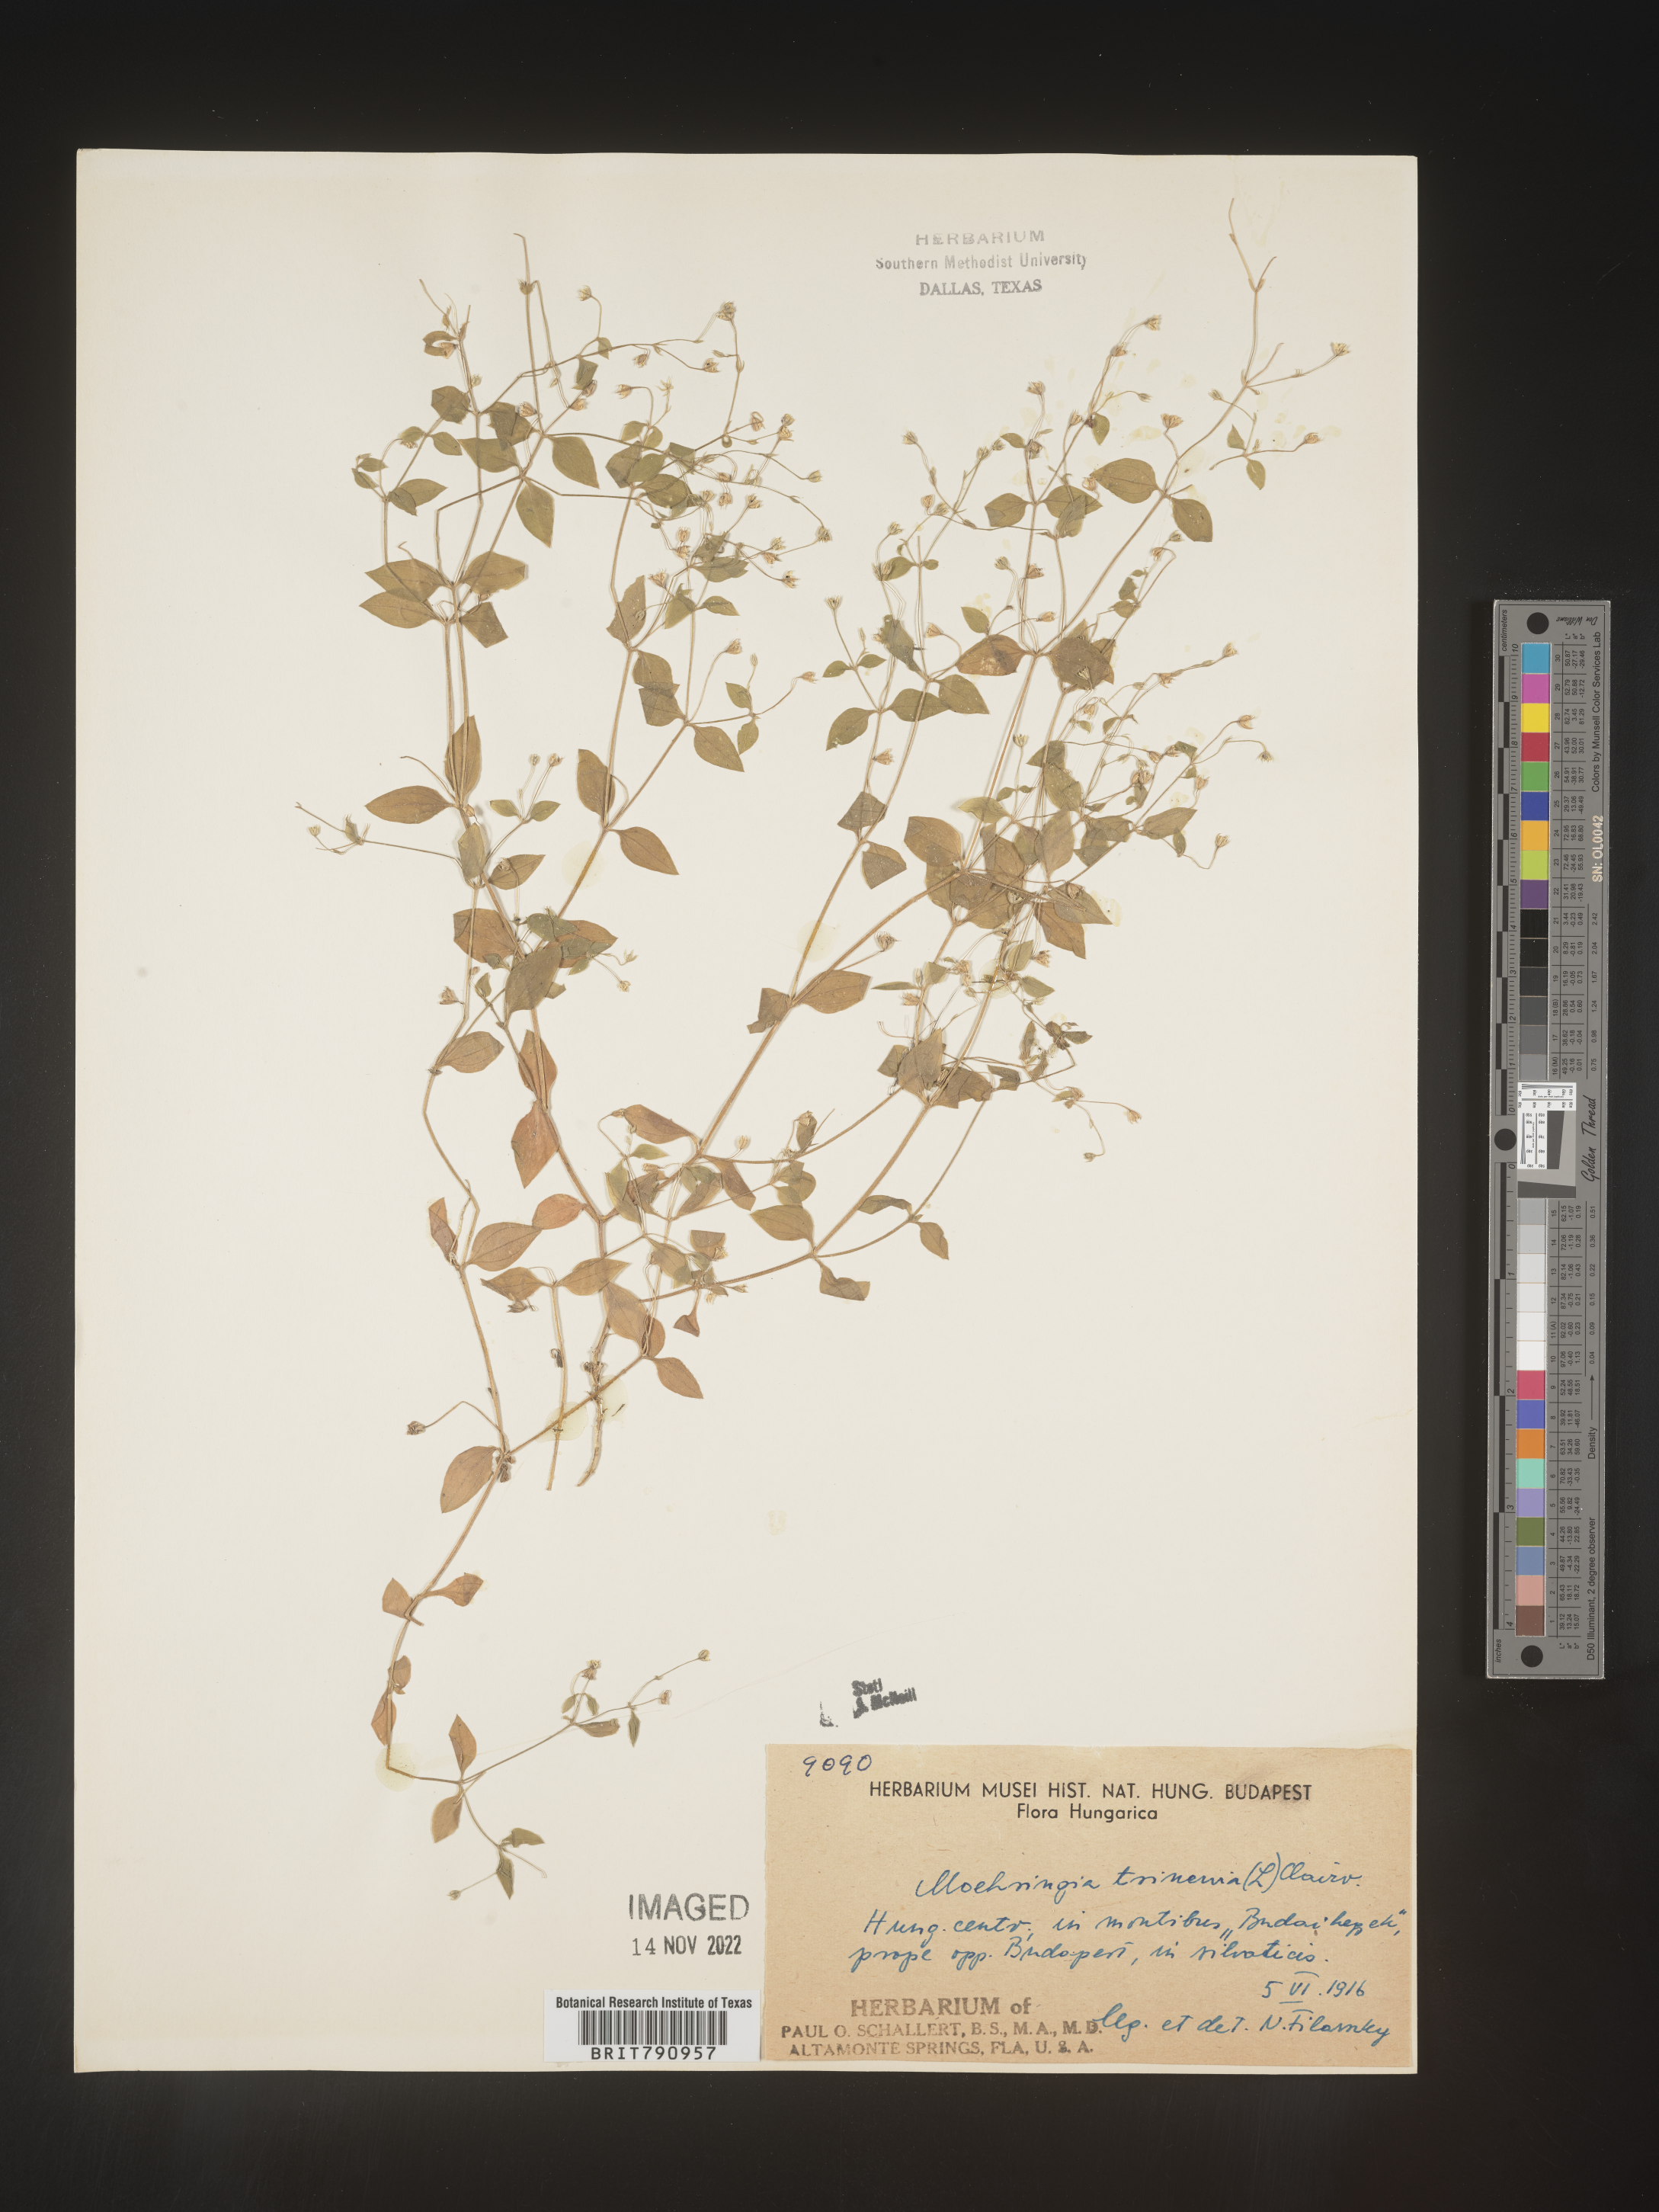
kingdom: Plantae
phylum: Tracheophyta
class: Magnoliopsida
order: Caryophyllales
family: Caryophyllaceae
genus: Moehringia
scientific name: Moehringia
